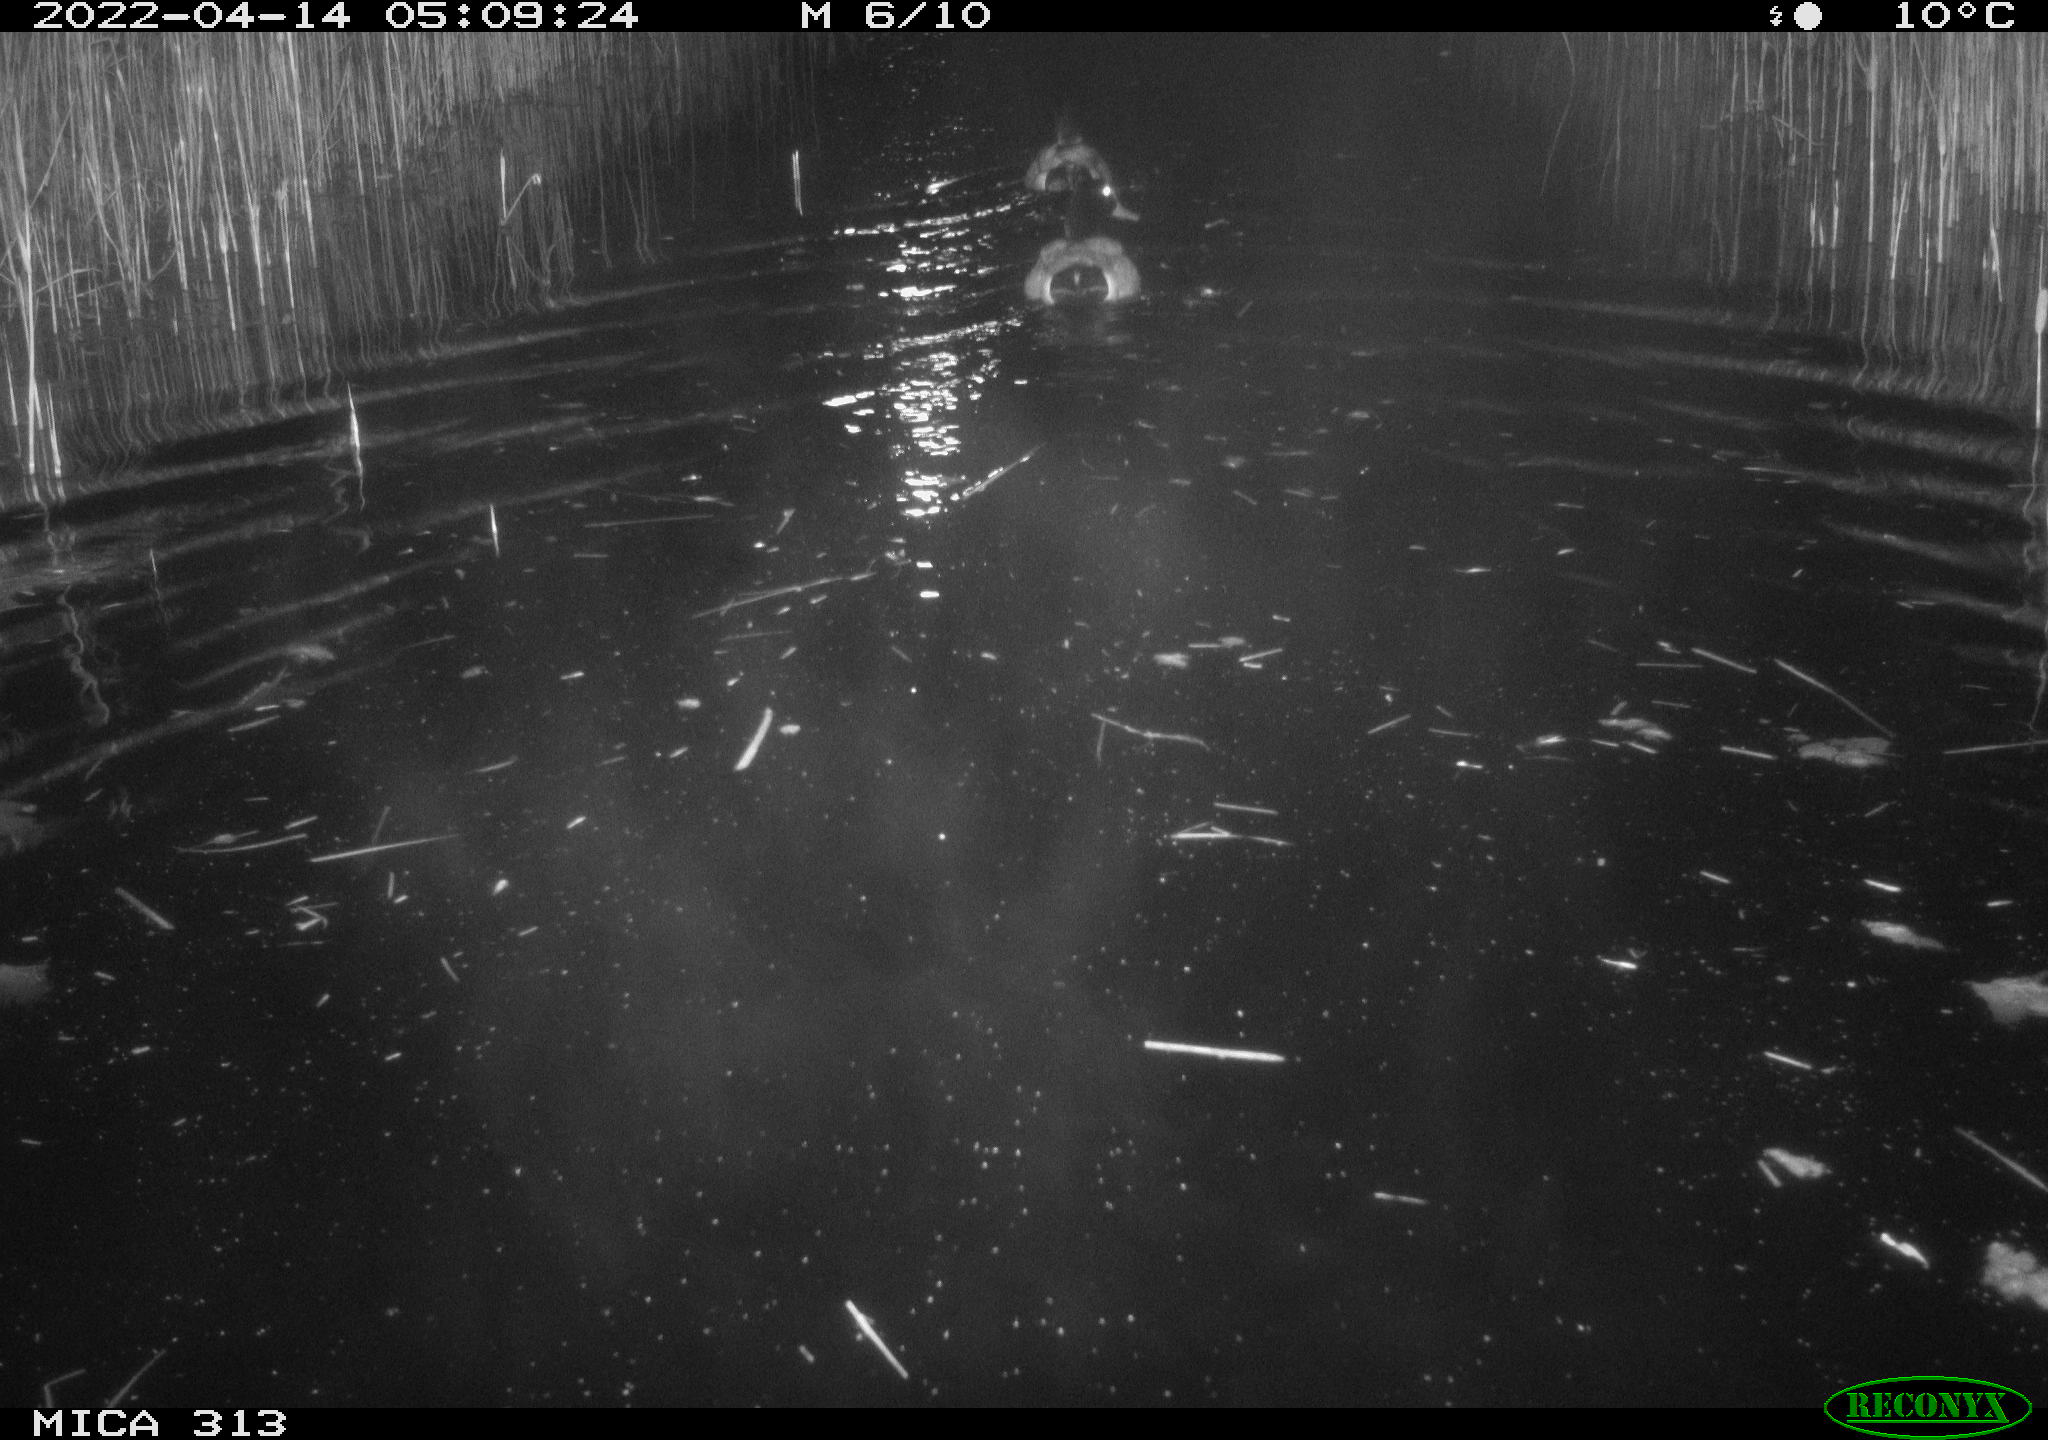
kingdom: Animalia
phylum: Chordata
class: Aves
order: Anseriformes
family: Anatidae
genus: Anas
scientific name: Anas platyrhynchos
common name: Mallard
